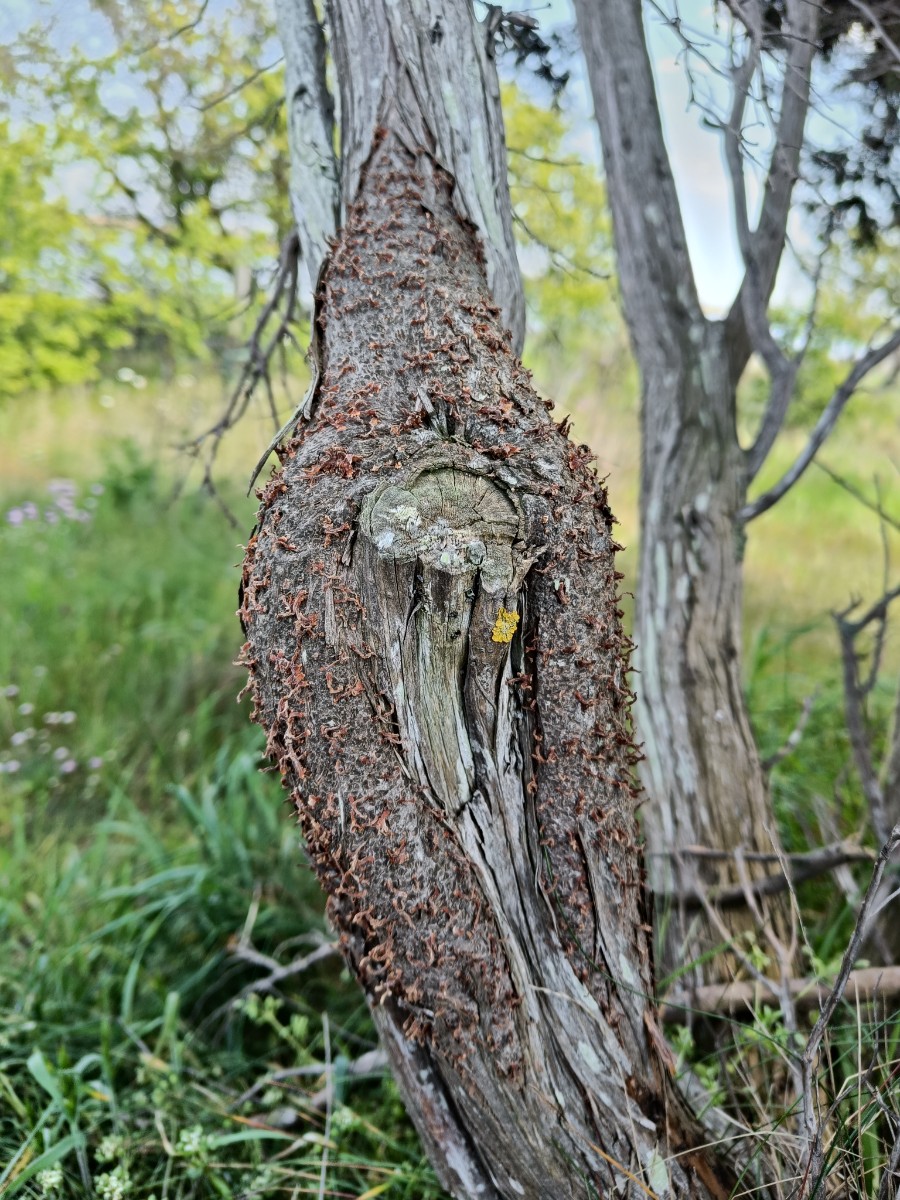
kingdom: Fungi
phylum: Basidiomycota
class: Pucciniomycetes
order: Pucciniales
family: Gymnosporangiaceae
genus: Gymnosporangium
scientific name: Gymnosporangium clavariiforme
